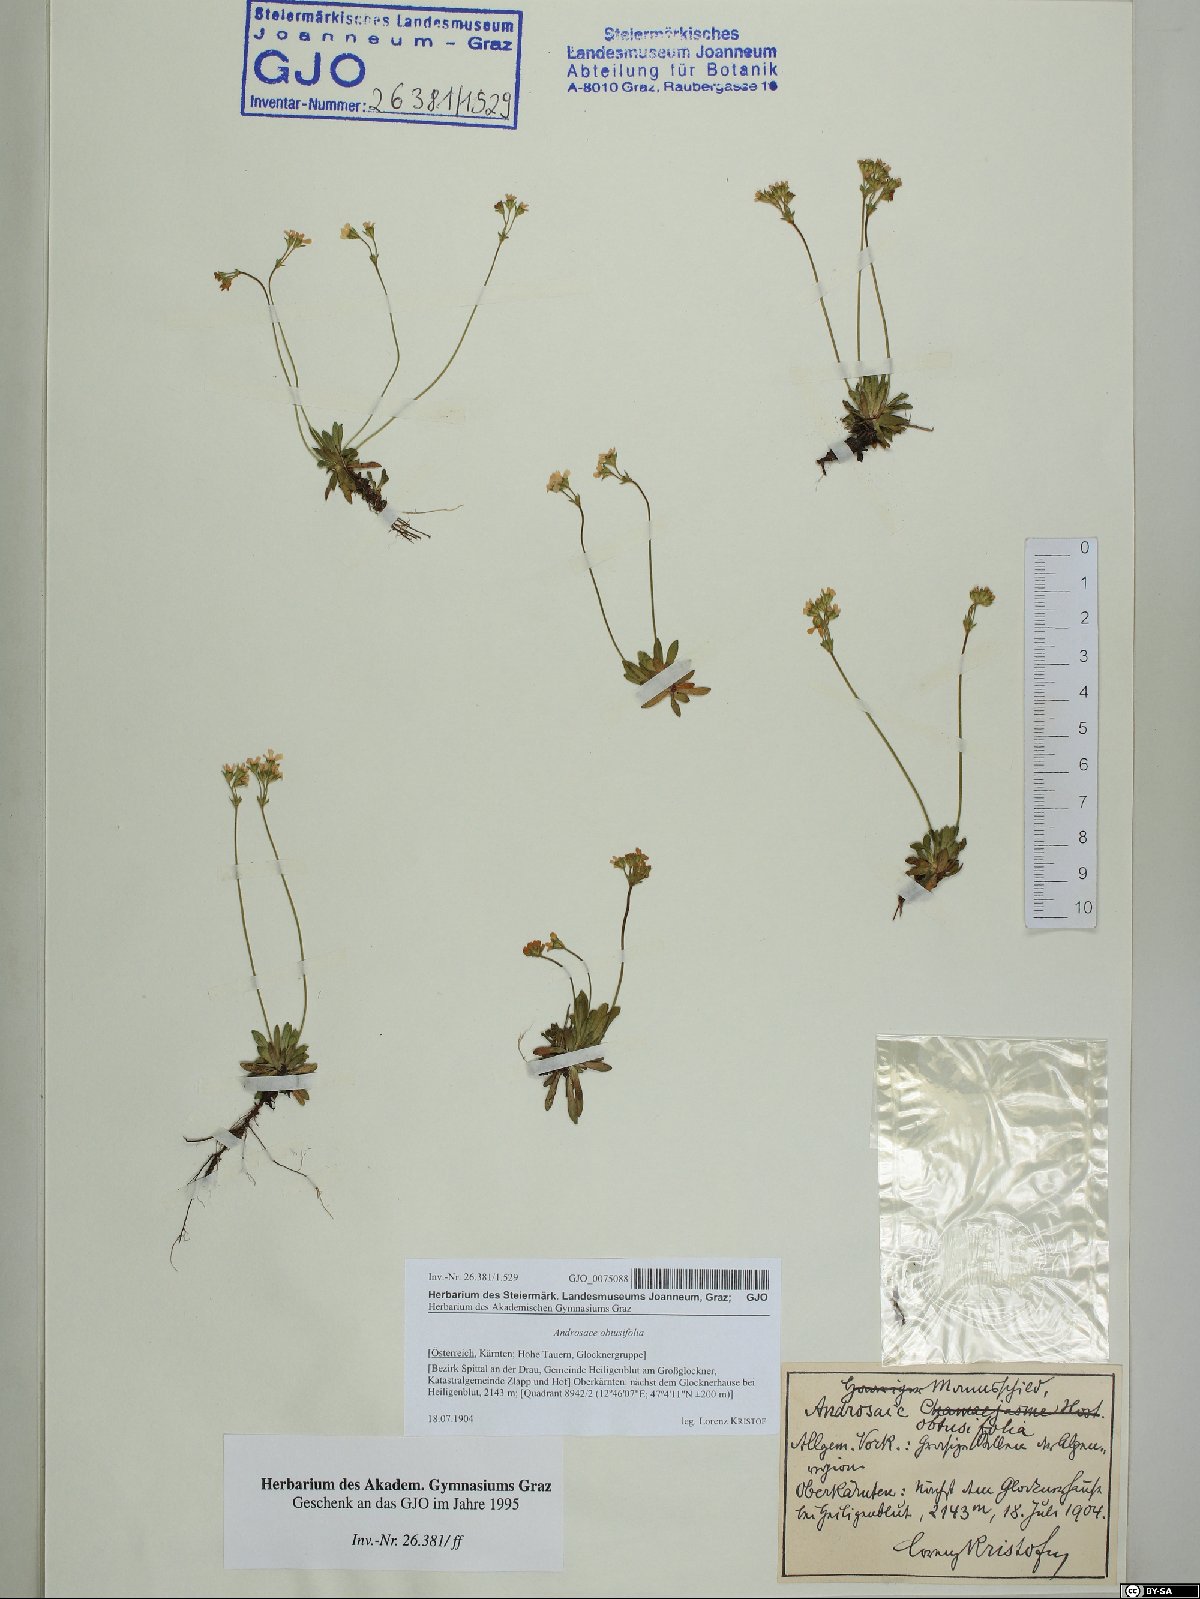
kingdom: Plantae
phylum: Tracheophyta
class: Magnoliopsida
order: Ericales
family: Primulaceae
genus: Androsace
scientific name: Androsace obtusifolia
